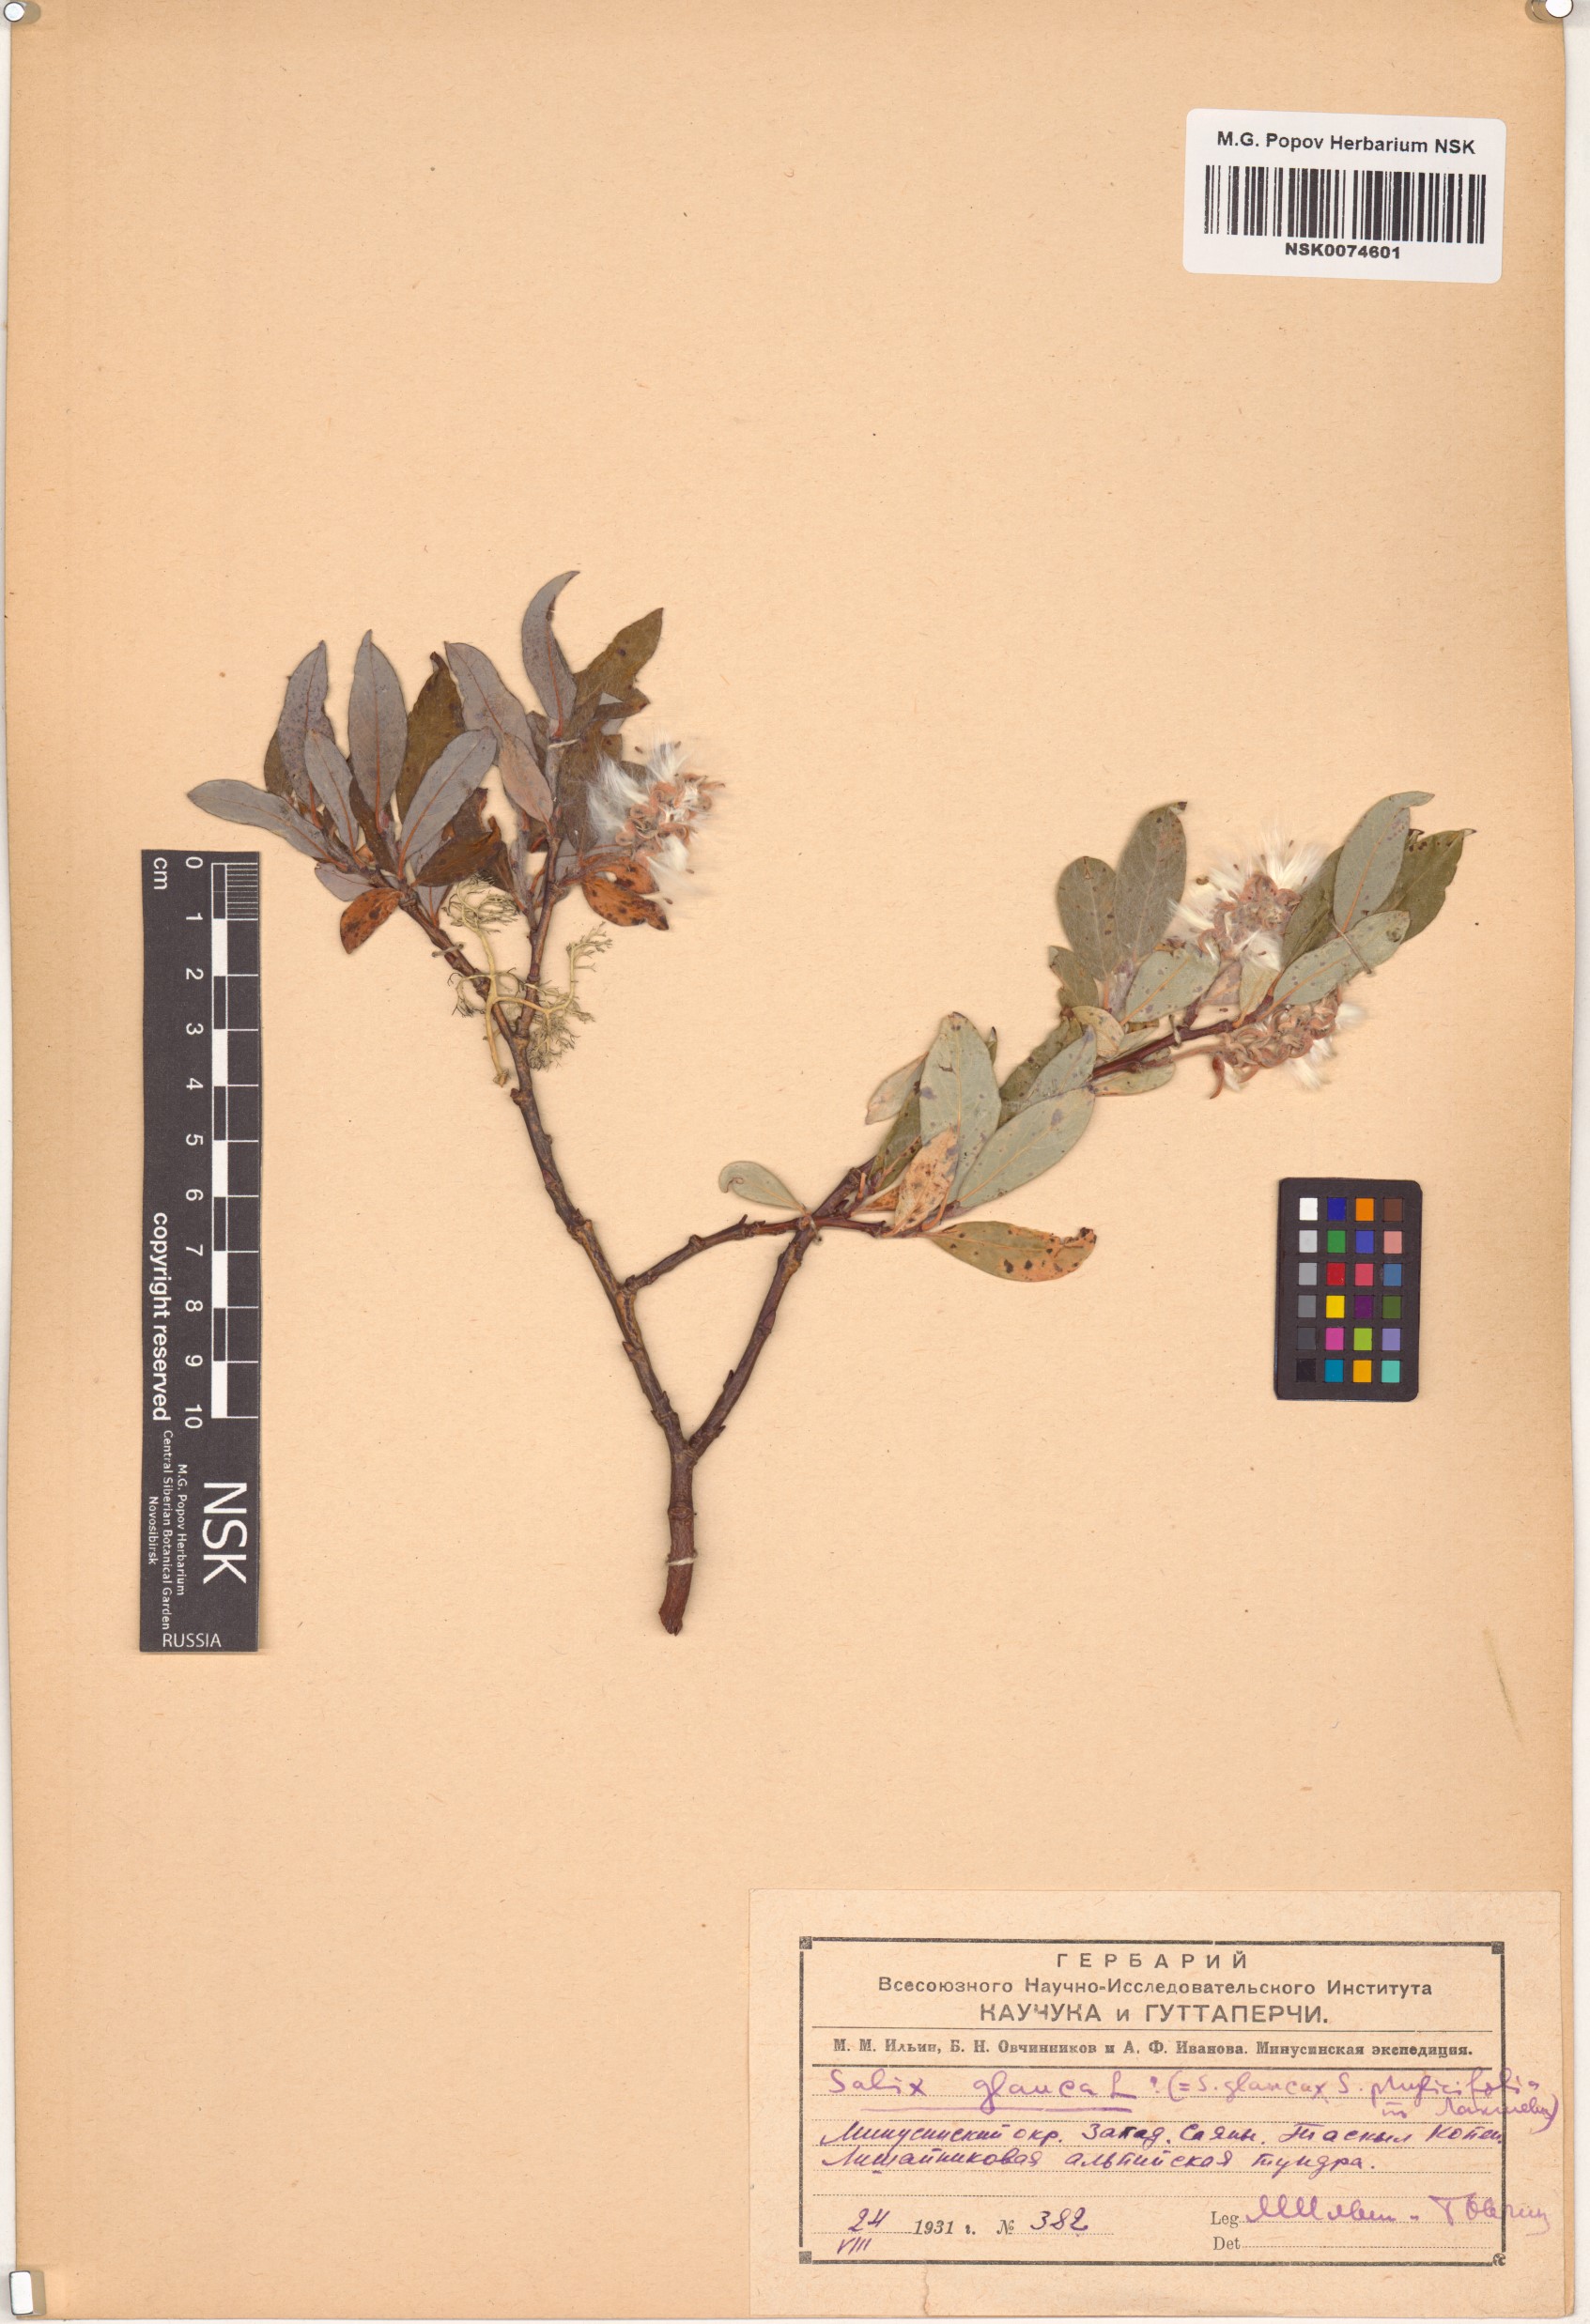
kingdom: Plantae
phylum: Tracheophyta
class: Magnoliopsida
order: Malpighiales
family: Salicaceae
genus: Salix
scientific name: Salix glauca
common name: Glaucous willow
